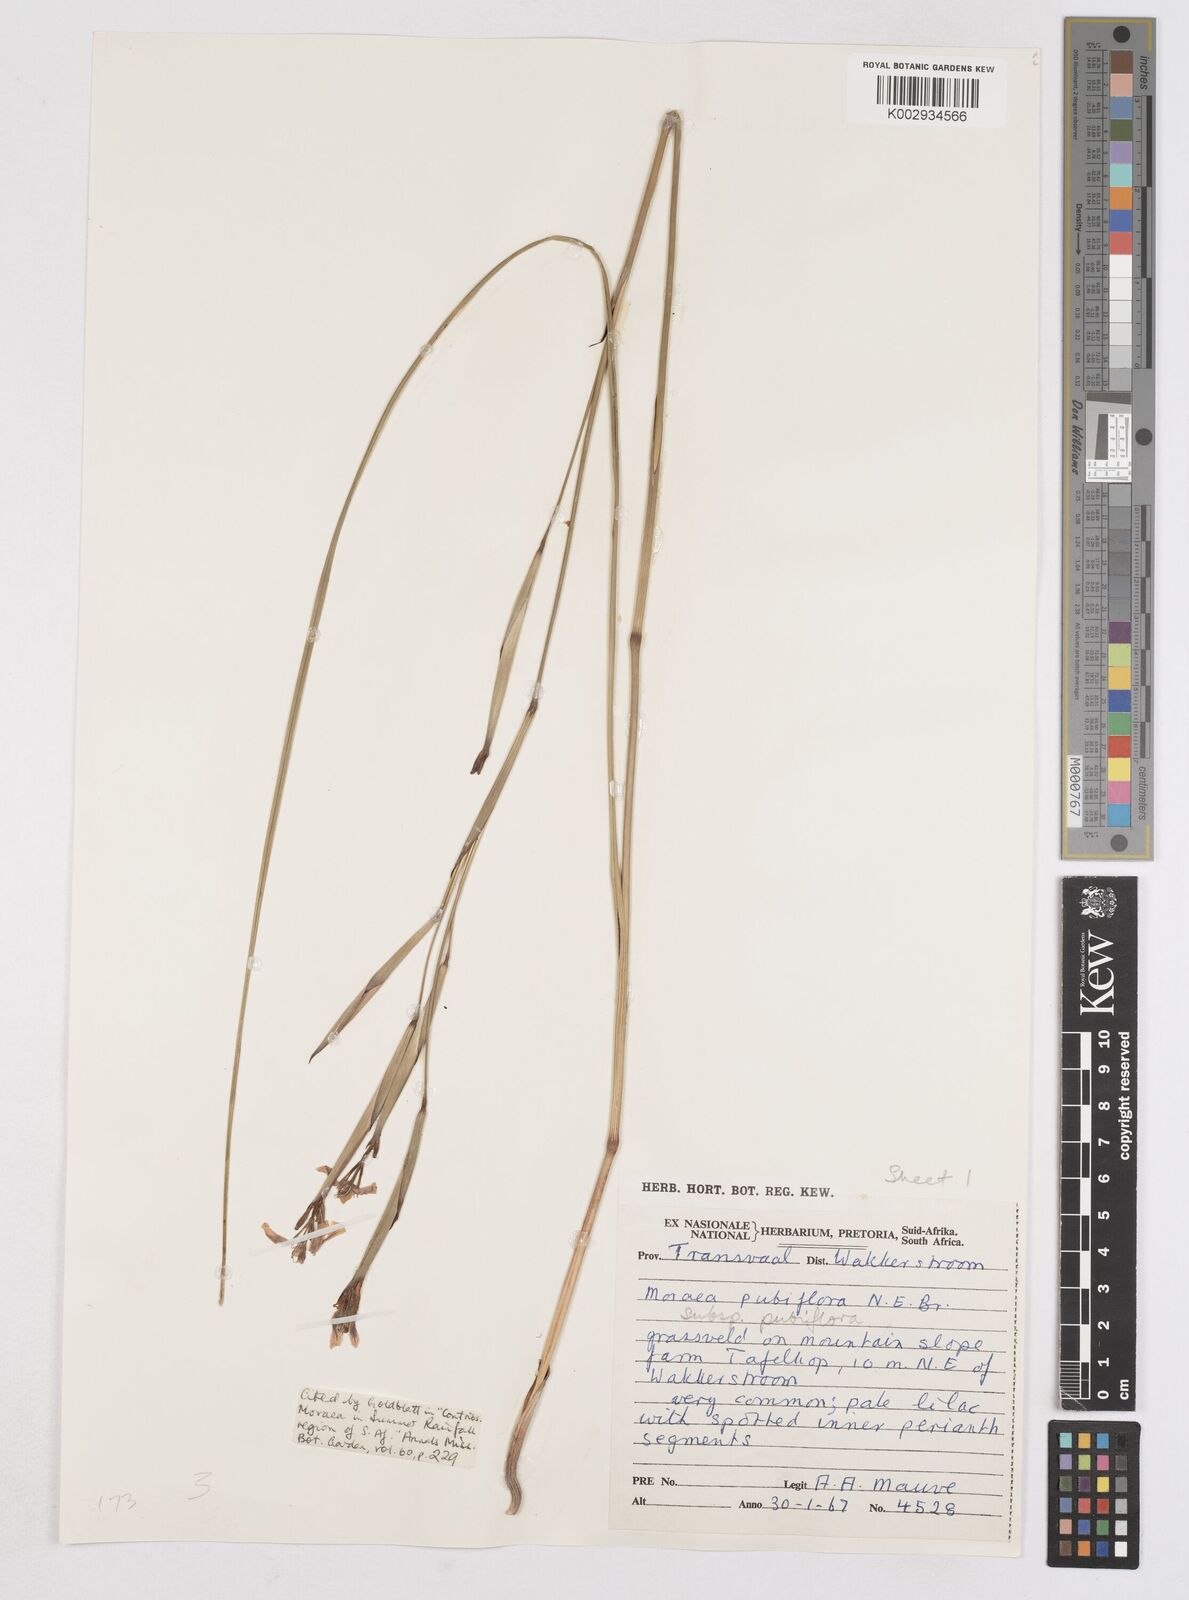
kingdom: Plantae
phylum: Tracheophyta
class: Liliopsida
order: Asparagales
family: Iridaceae
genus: Moraea
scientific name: Moraea pubiflora
